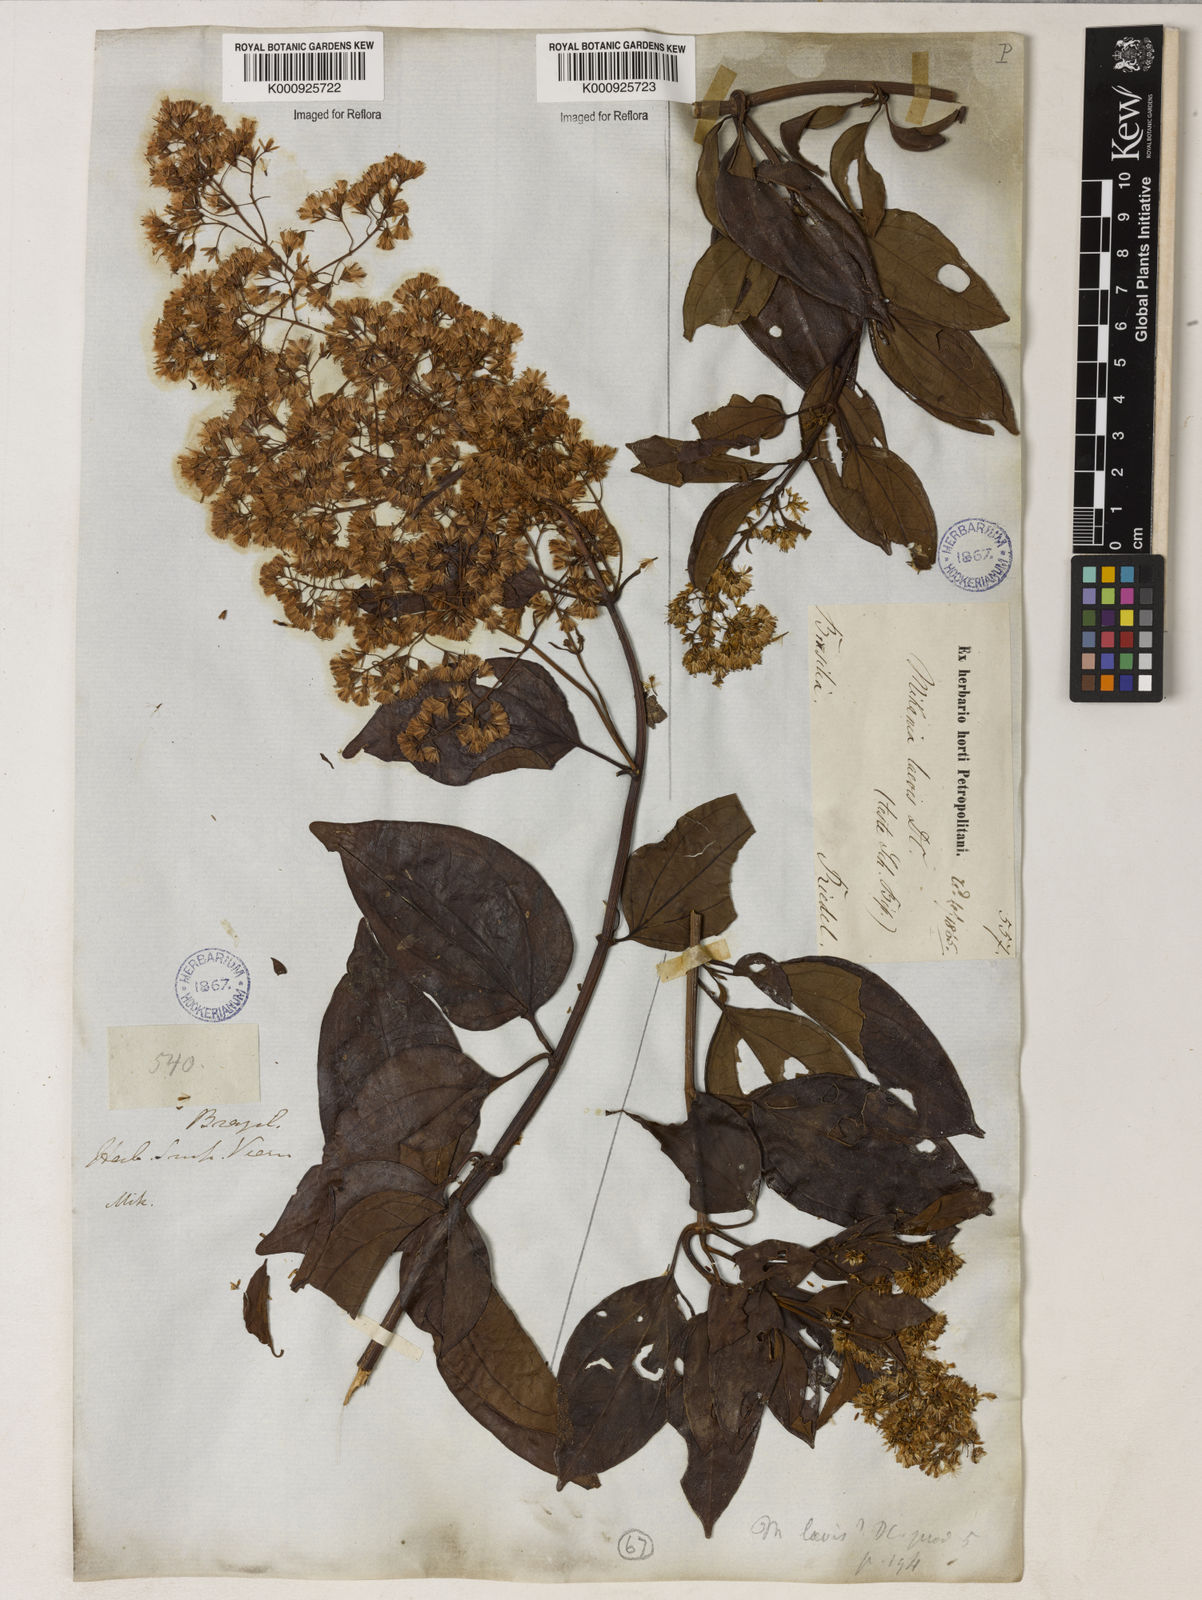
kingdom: Plantae
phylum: Tracheophyta
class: Magnoliopsida
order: Asterales
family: Asteraceae
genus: Mikania
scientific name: Mikania trinervis
